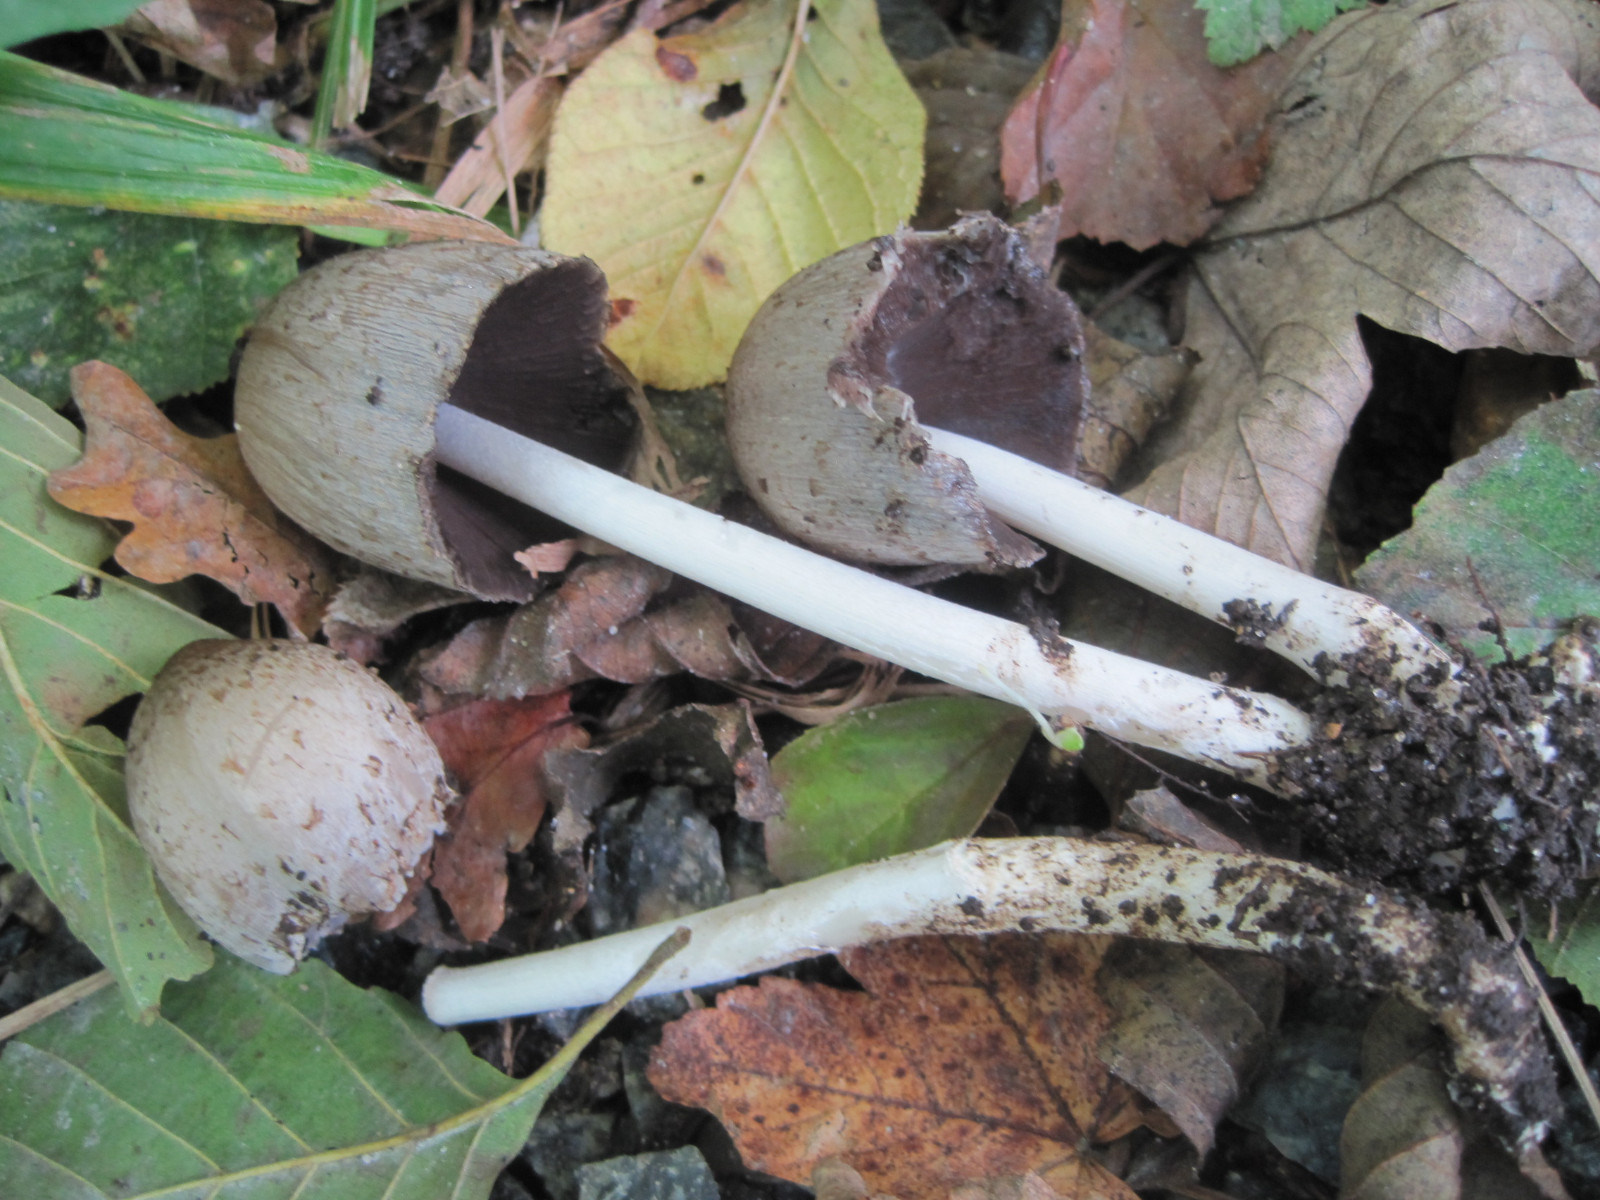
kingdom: Fungi
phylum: Basidiomycota
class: Agaricomycetes
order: Agaricales
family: Psathyrellaceae
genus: Coprinopsis
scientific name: Coprinopsis romagnesiana
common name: brunskællet blækhat
